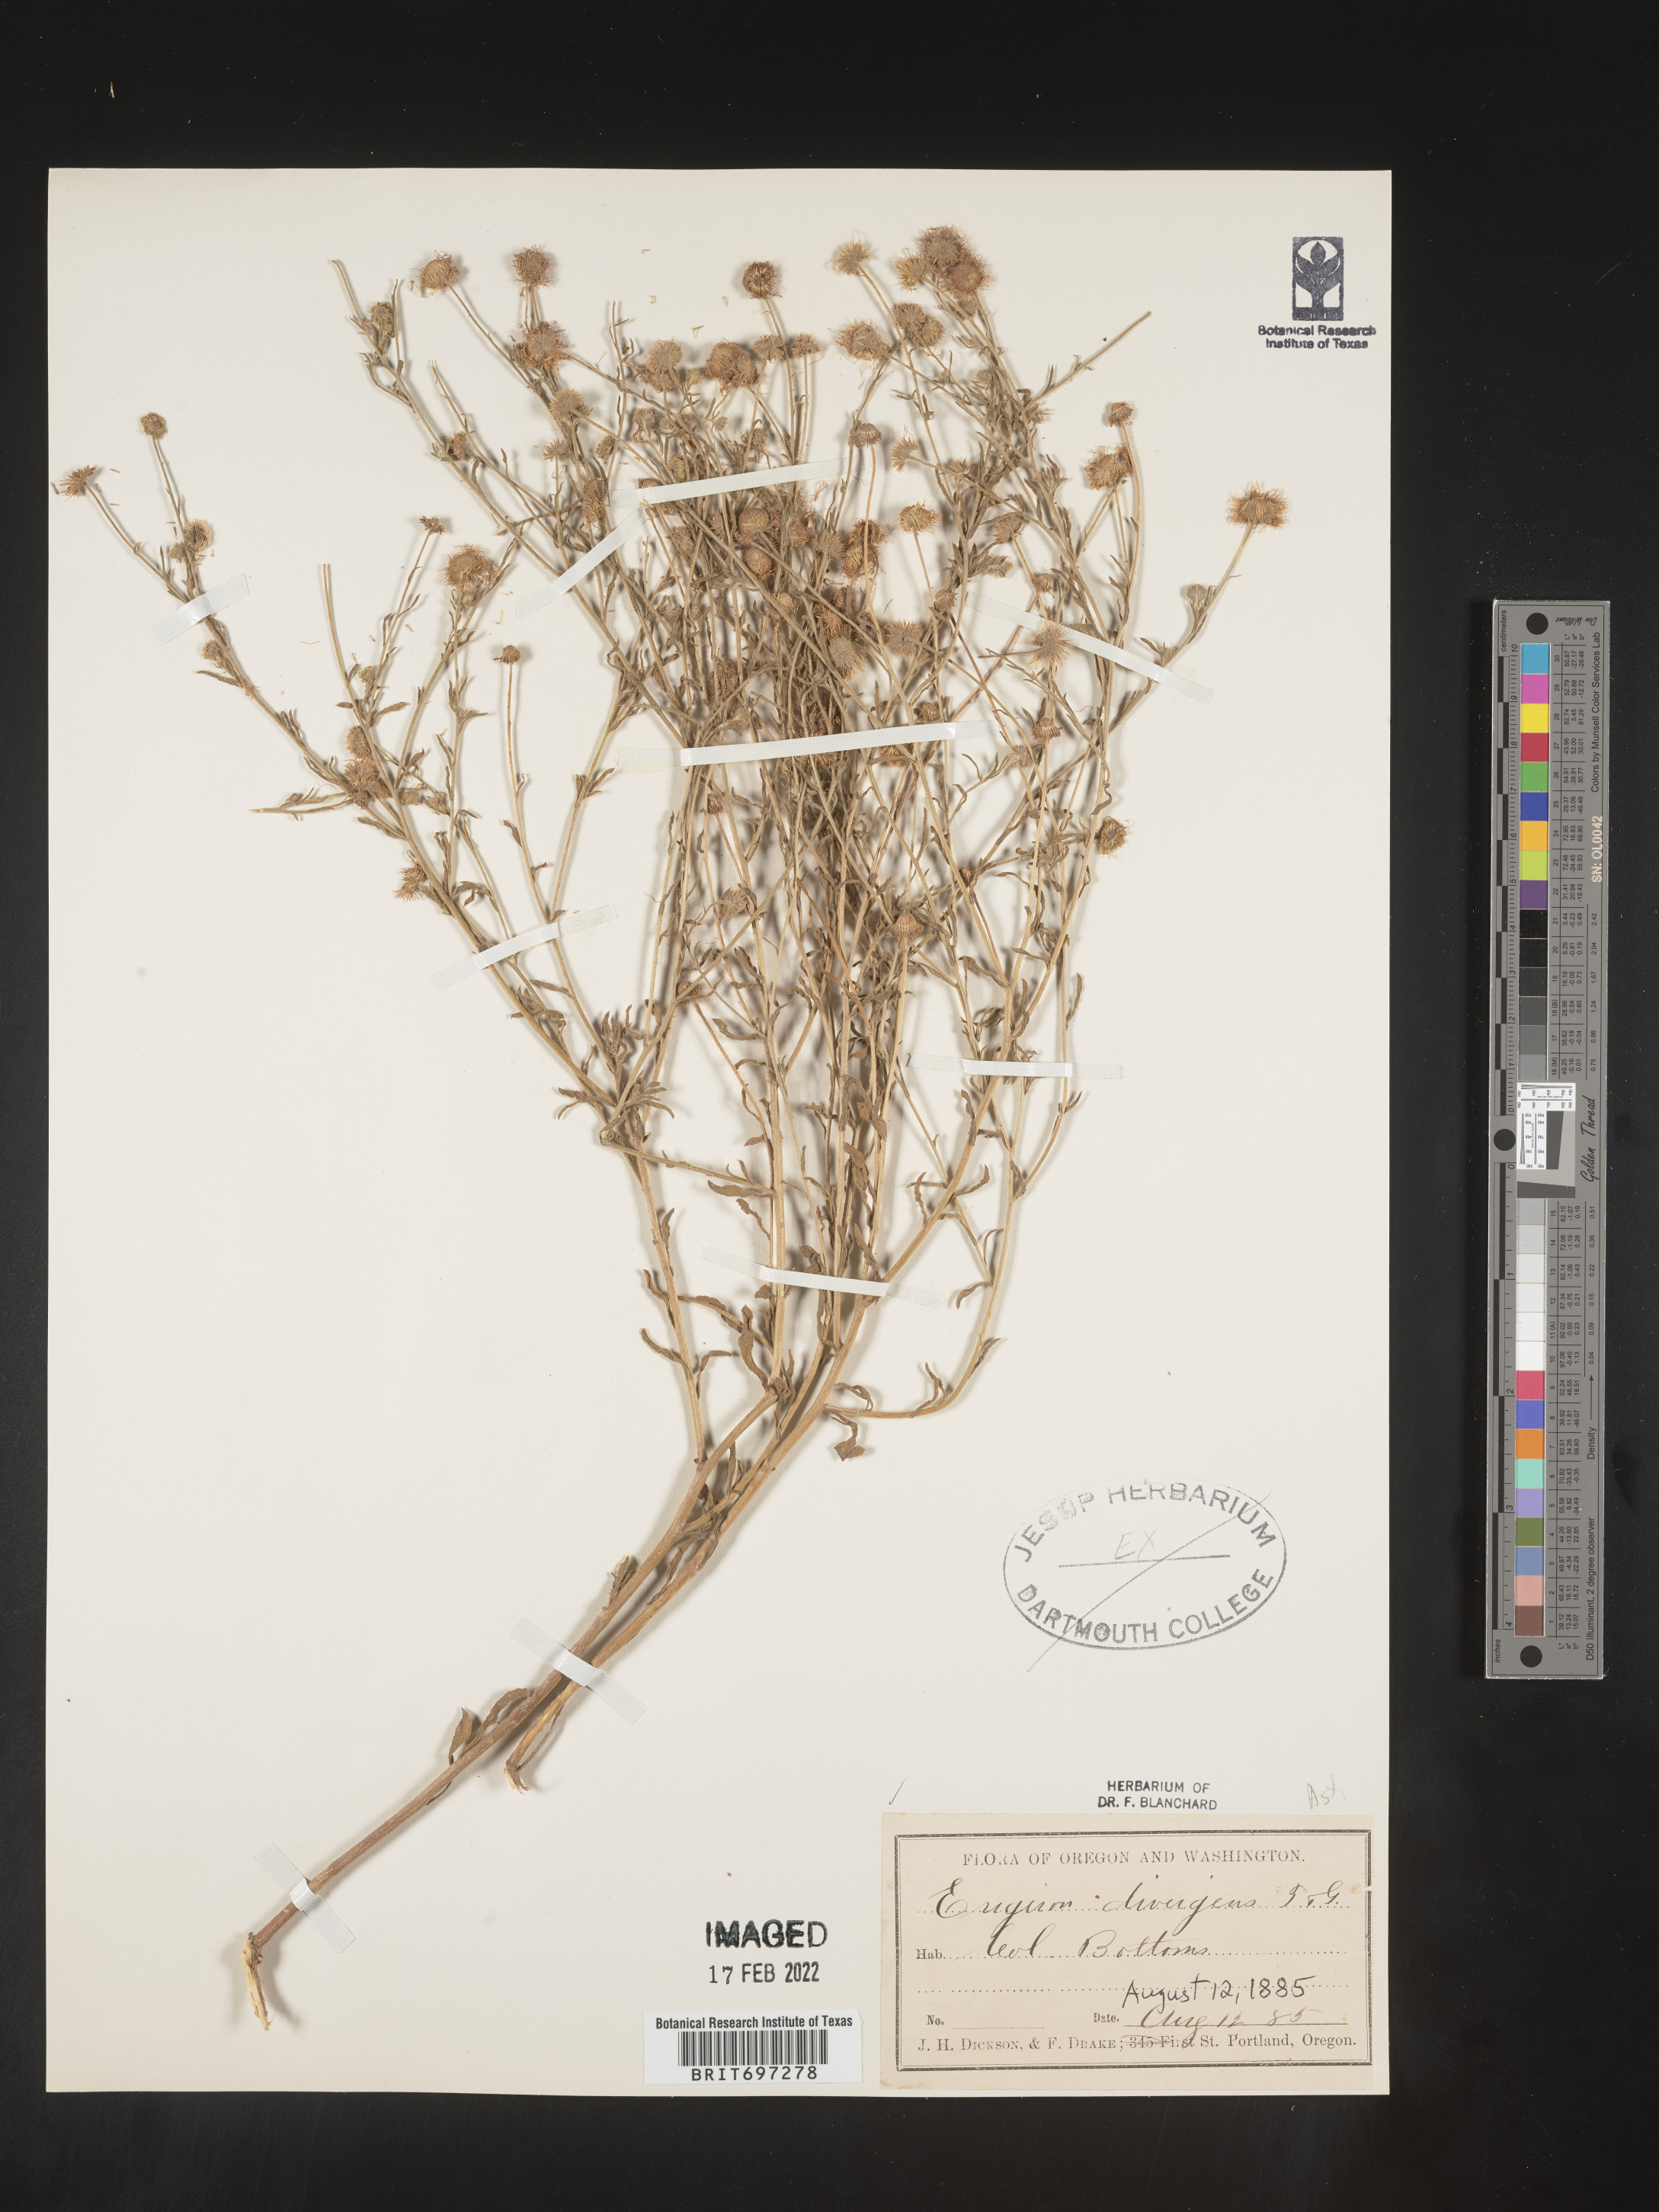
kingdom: Plantae
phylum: Tracheophyta
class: Magnoliopsida
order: Asterales
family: Asteraceae
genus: Erigeron
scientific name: Erigeron divergens
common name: Diffuse fleabane
